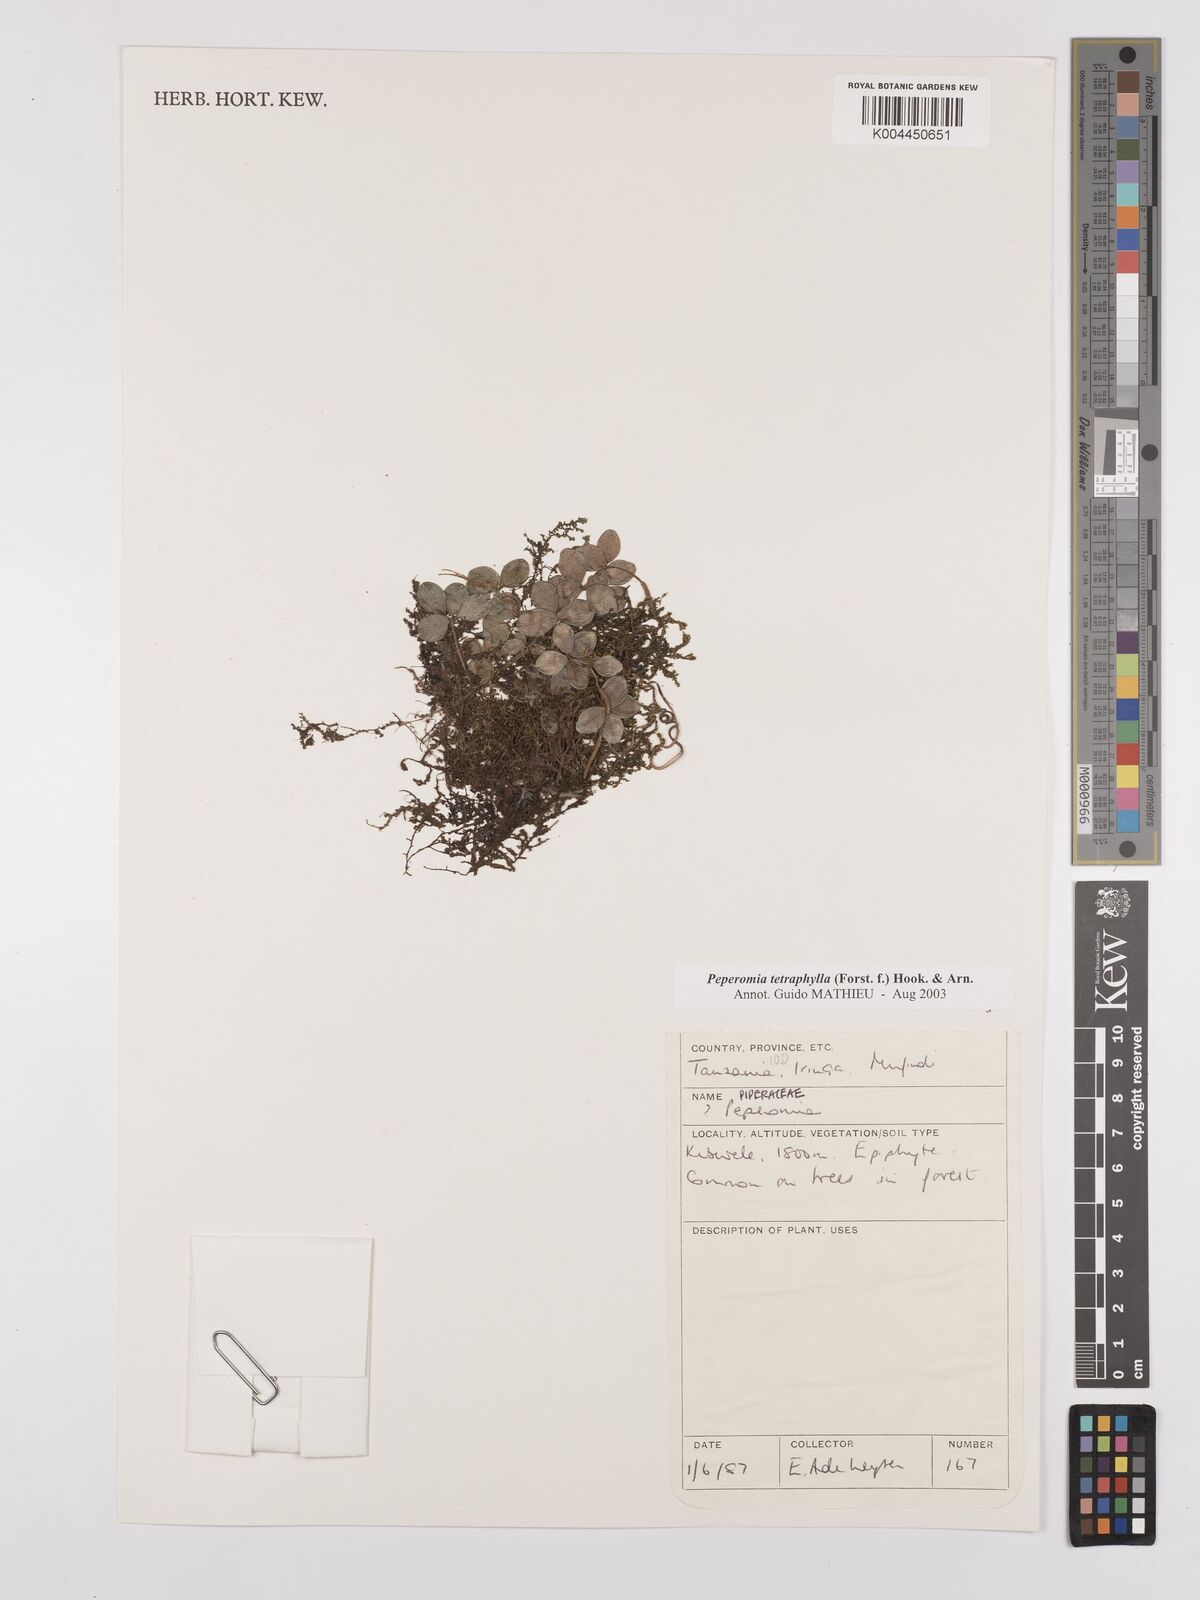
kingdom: Plantae
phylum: Tracheophyta
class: Magnoliopsida
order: Piperales
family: Piperaceae
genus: Peperomia
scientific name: Peperomia tetraphylla
